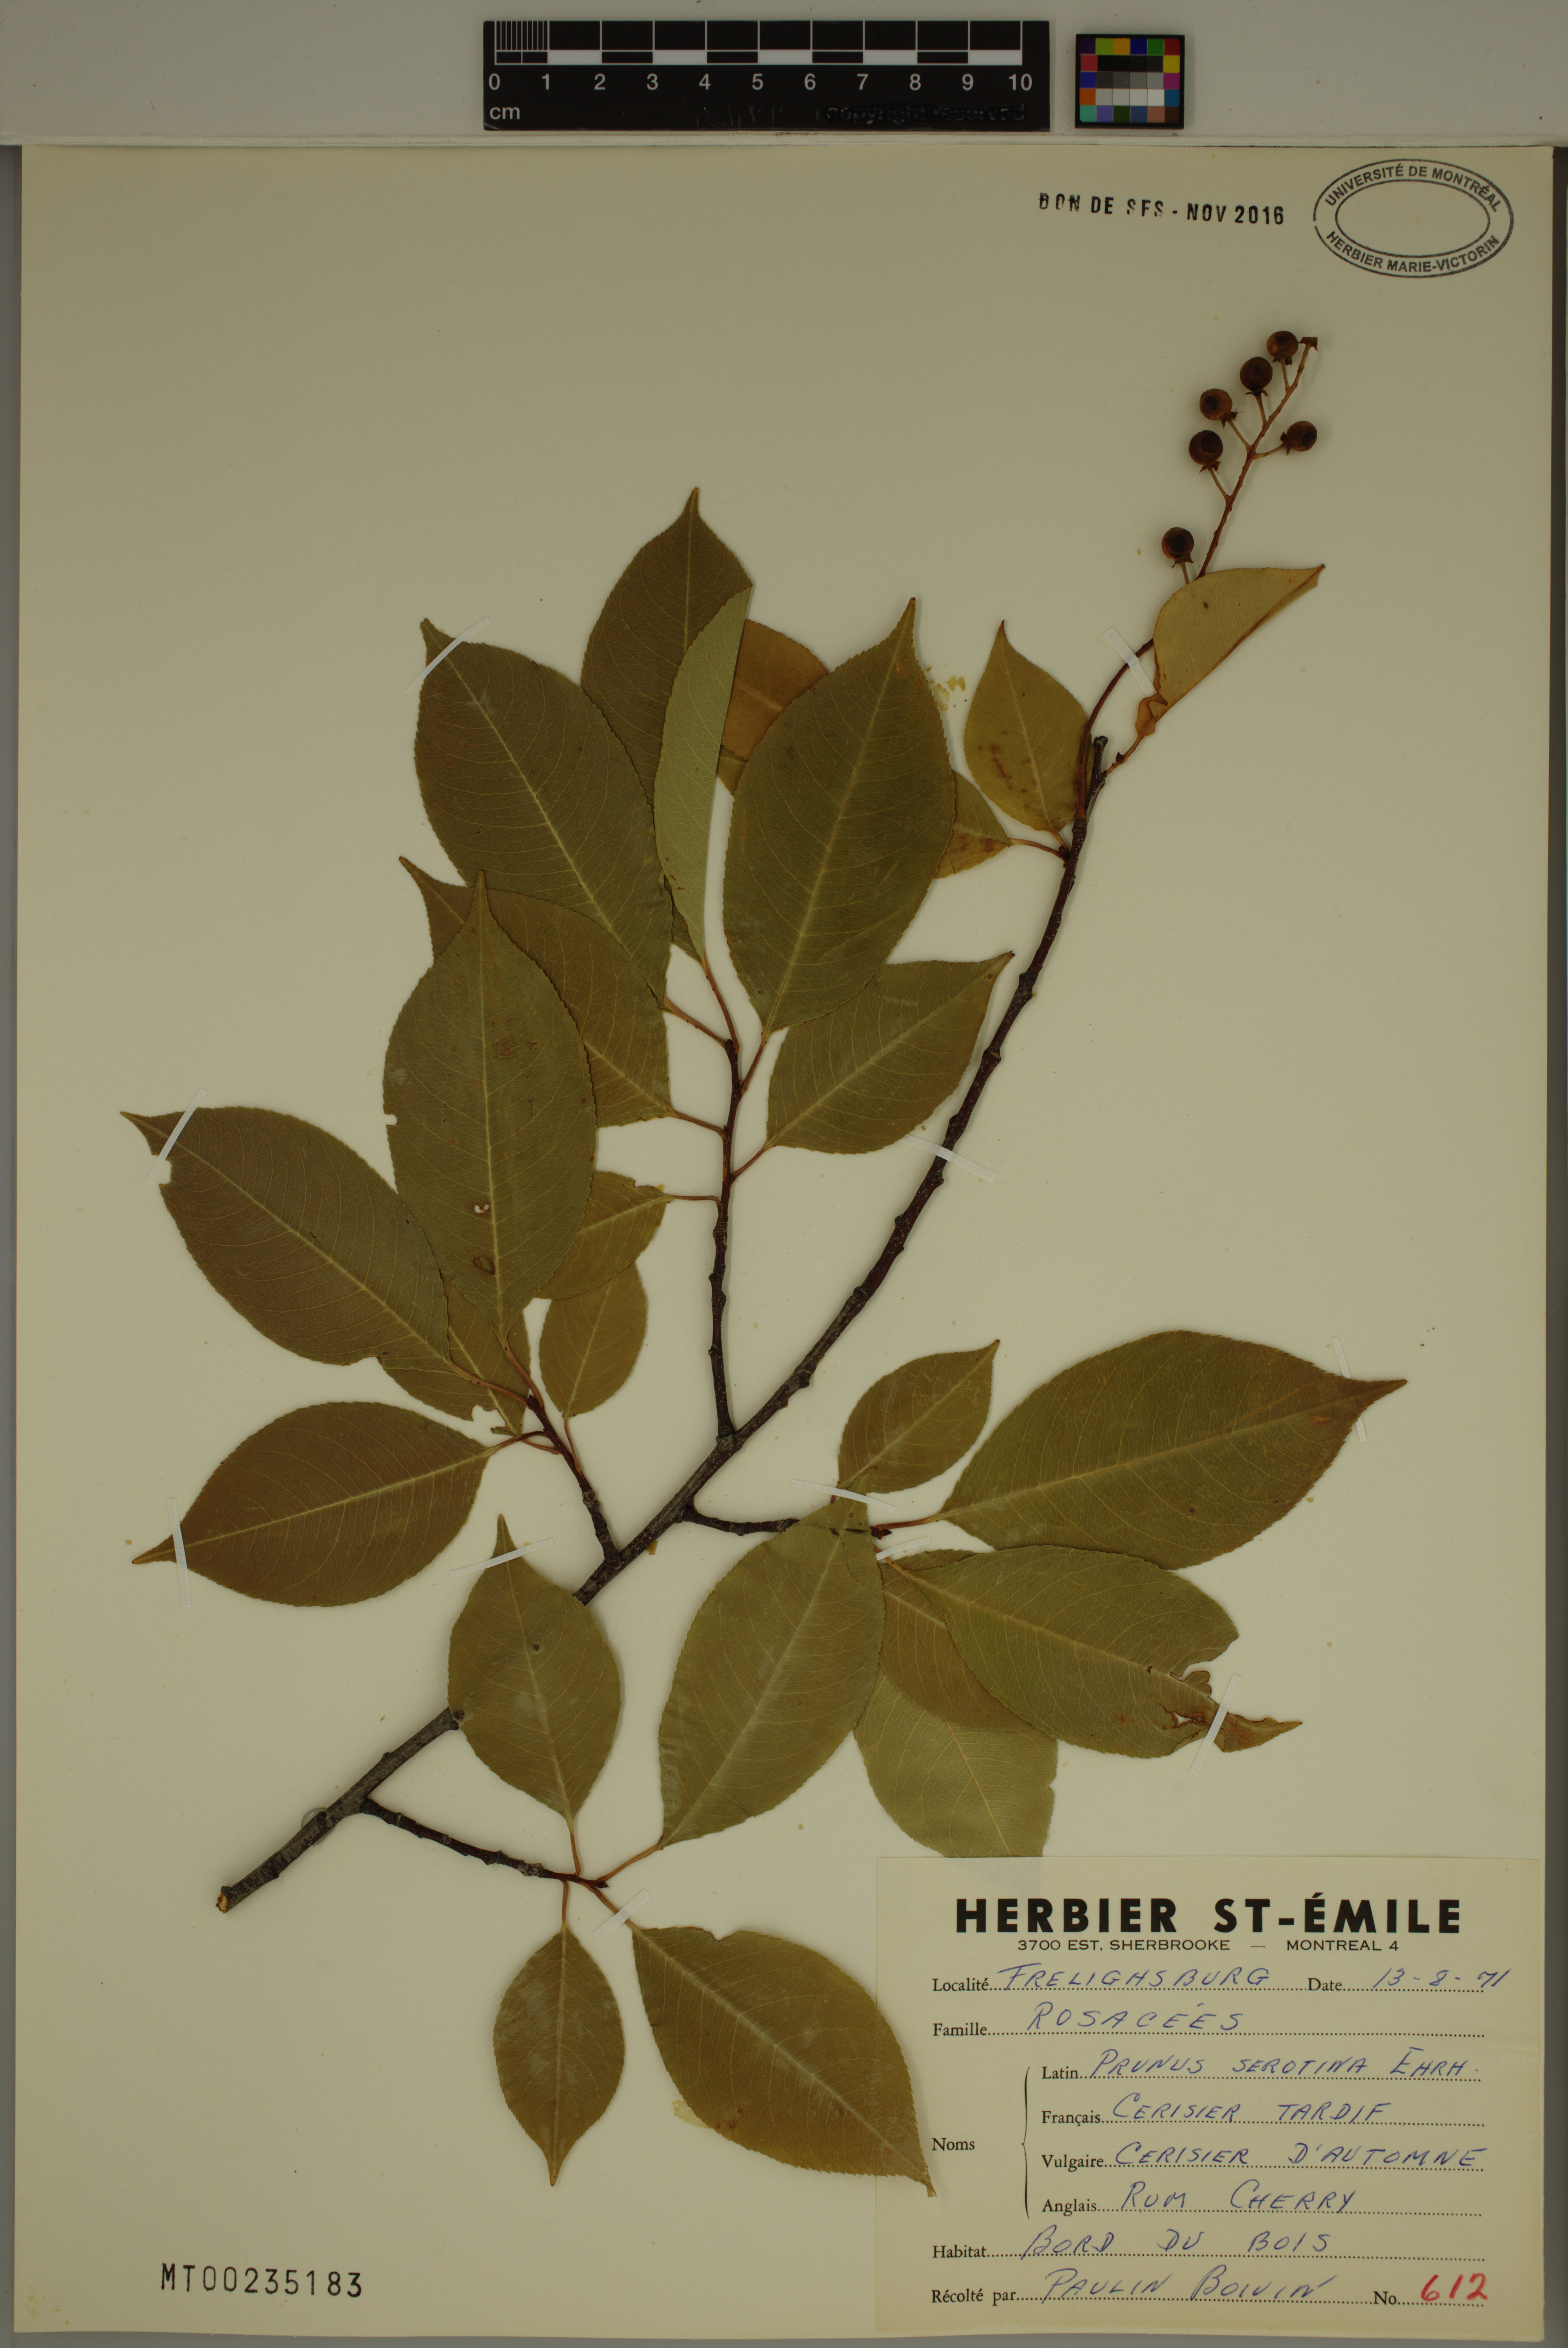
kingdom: Plantae
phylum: Tracheophyta
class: Magnoliopsida
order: Rosales
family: Rosaceae
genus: Prunus
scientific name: Prunus serotina
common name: Black cherry
